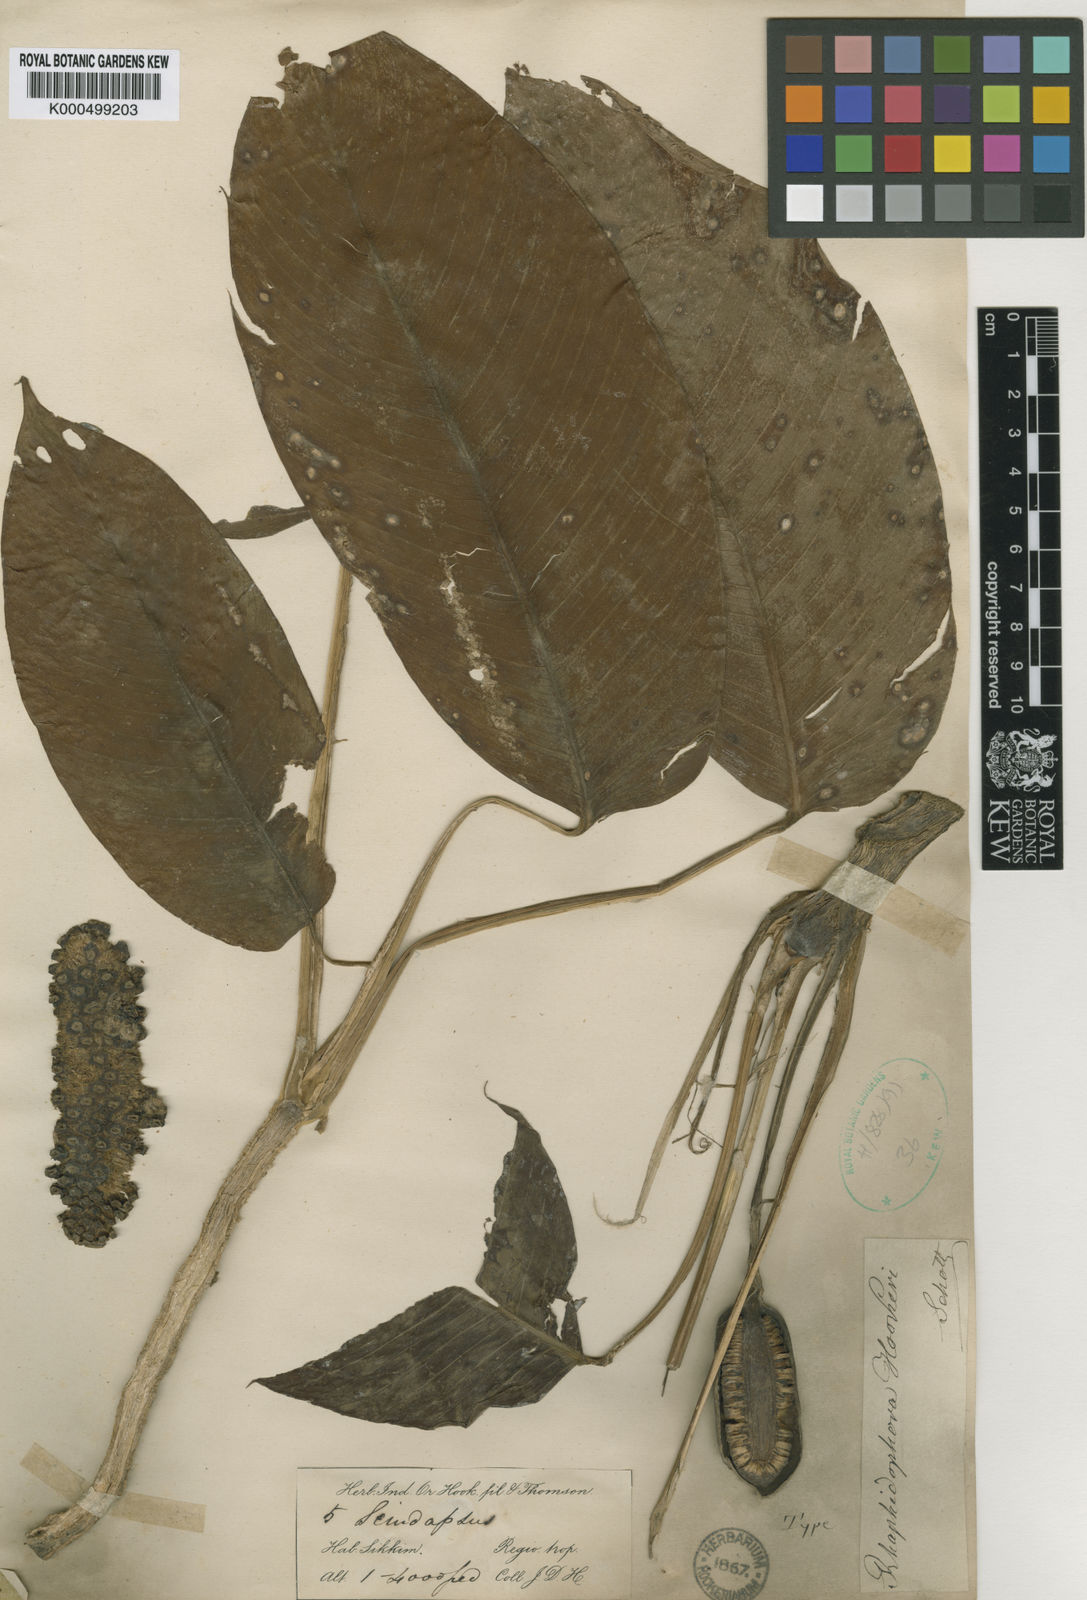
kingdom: Plantae
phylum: Tracheophyta
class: Liliopsida
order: Alismatales
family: Araceae
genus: Rhaphidophora
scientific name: Rhaphidophora hookeri
